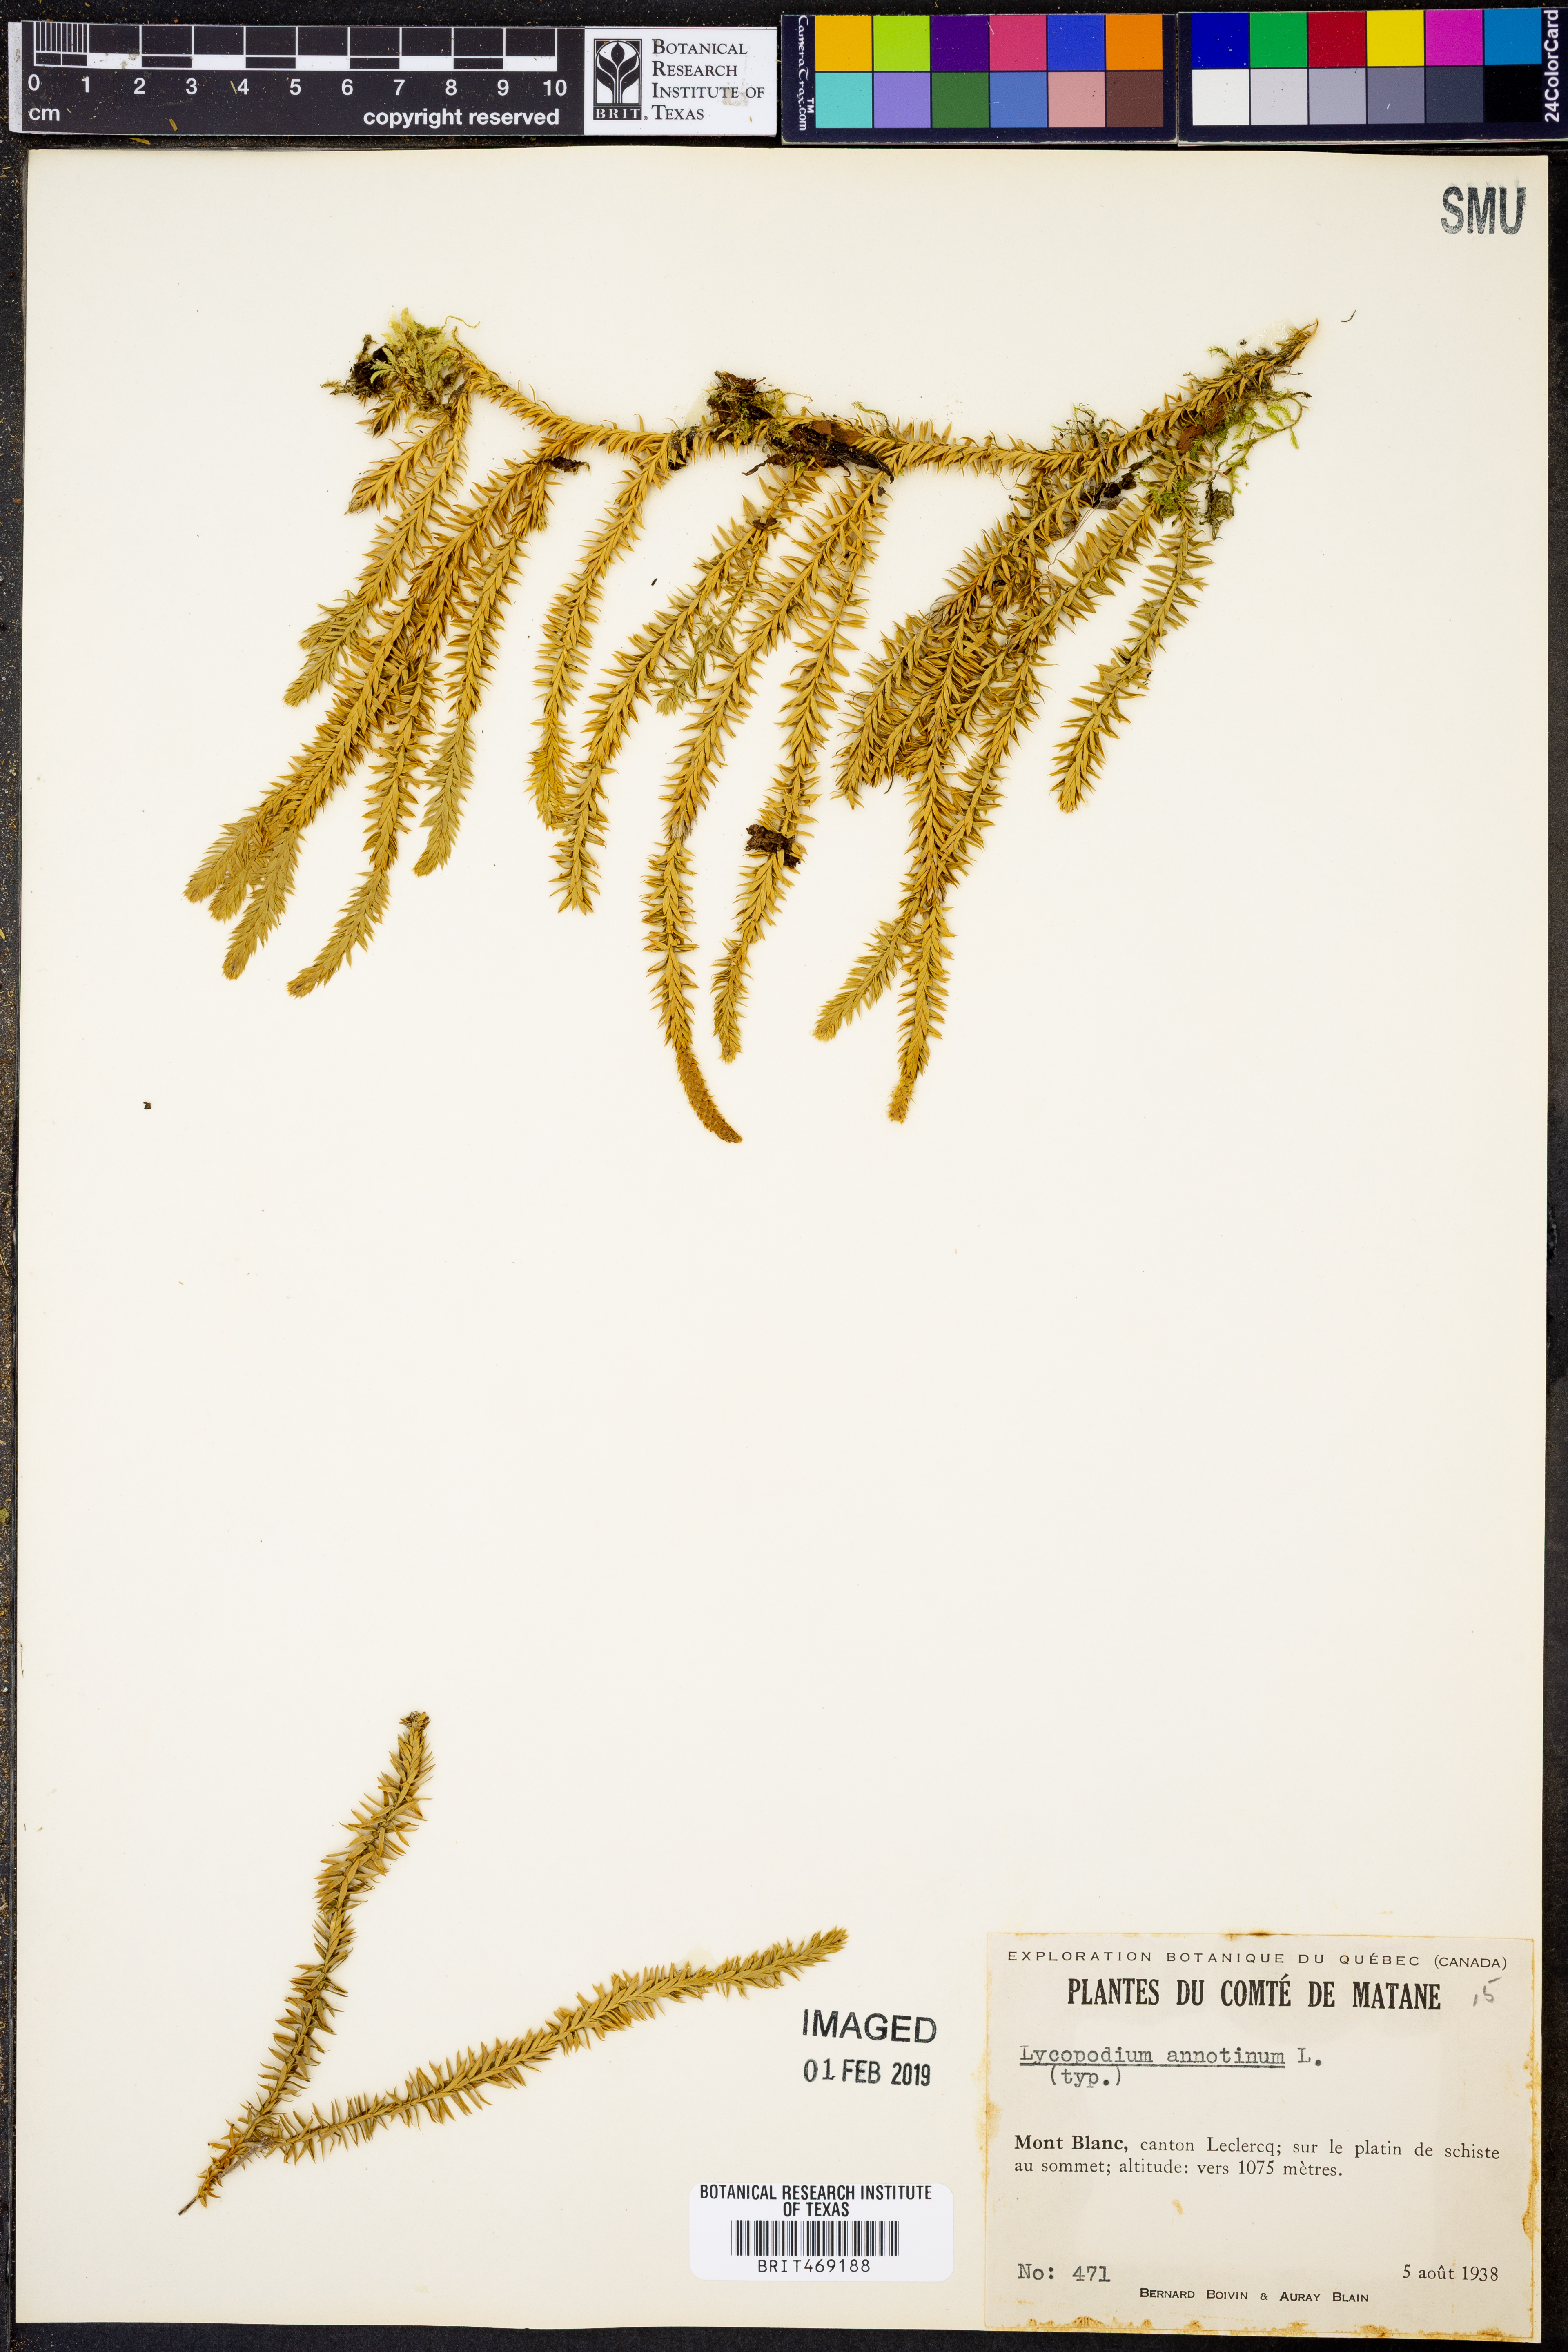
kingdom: Plantae
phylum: Tracheophyta
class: Lycopodiopsida
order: Lycopodiales
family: Lycopodiaceae
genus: Spinulum
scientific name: Spinulum annotinum
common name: Interrupted club-moss
